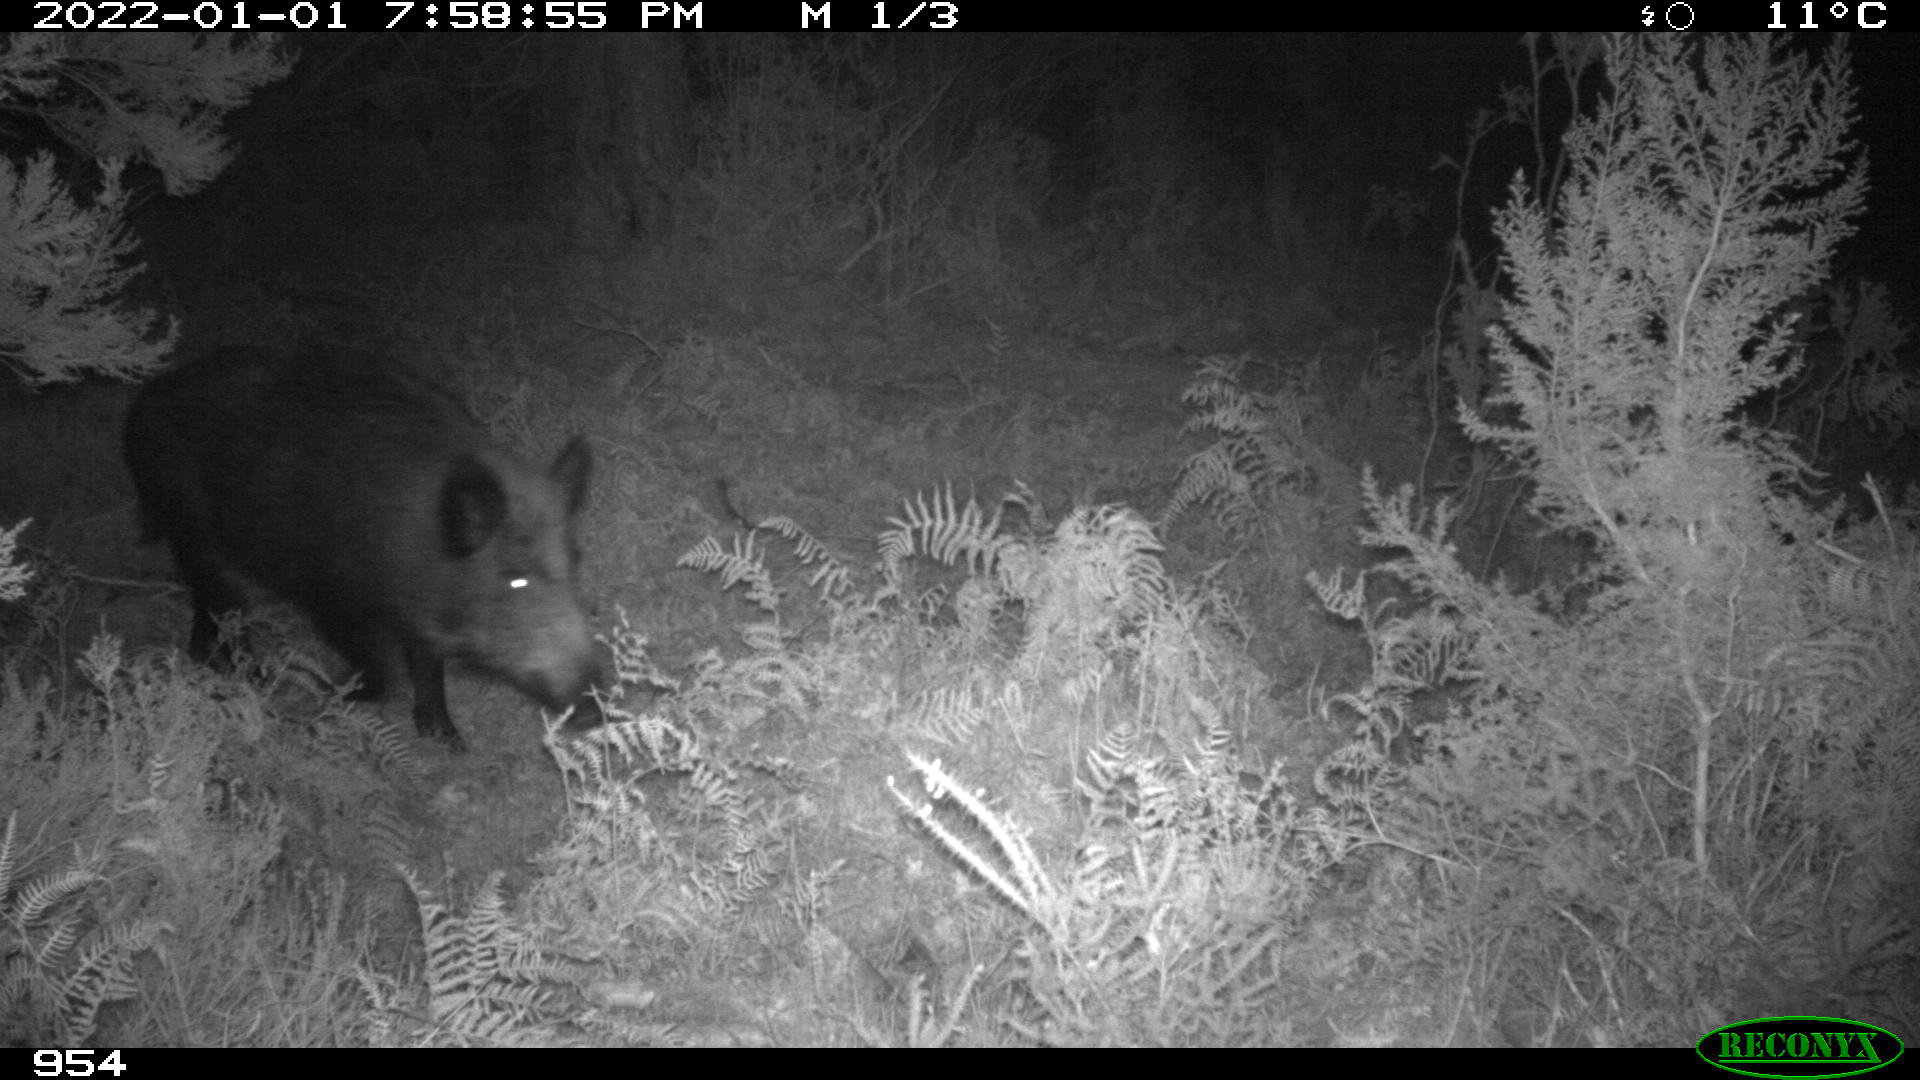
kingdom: Animalia
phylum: Chordata
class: Mammalia
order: Artiodactyla
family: Suidae
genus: Sus
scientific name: Sus scrofa
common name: Wild boar
